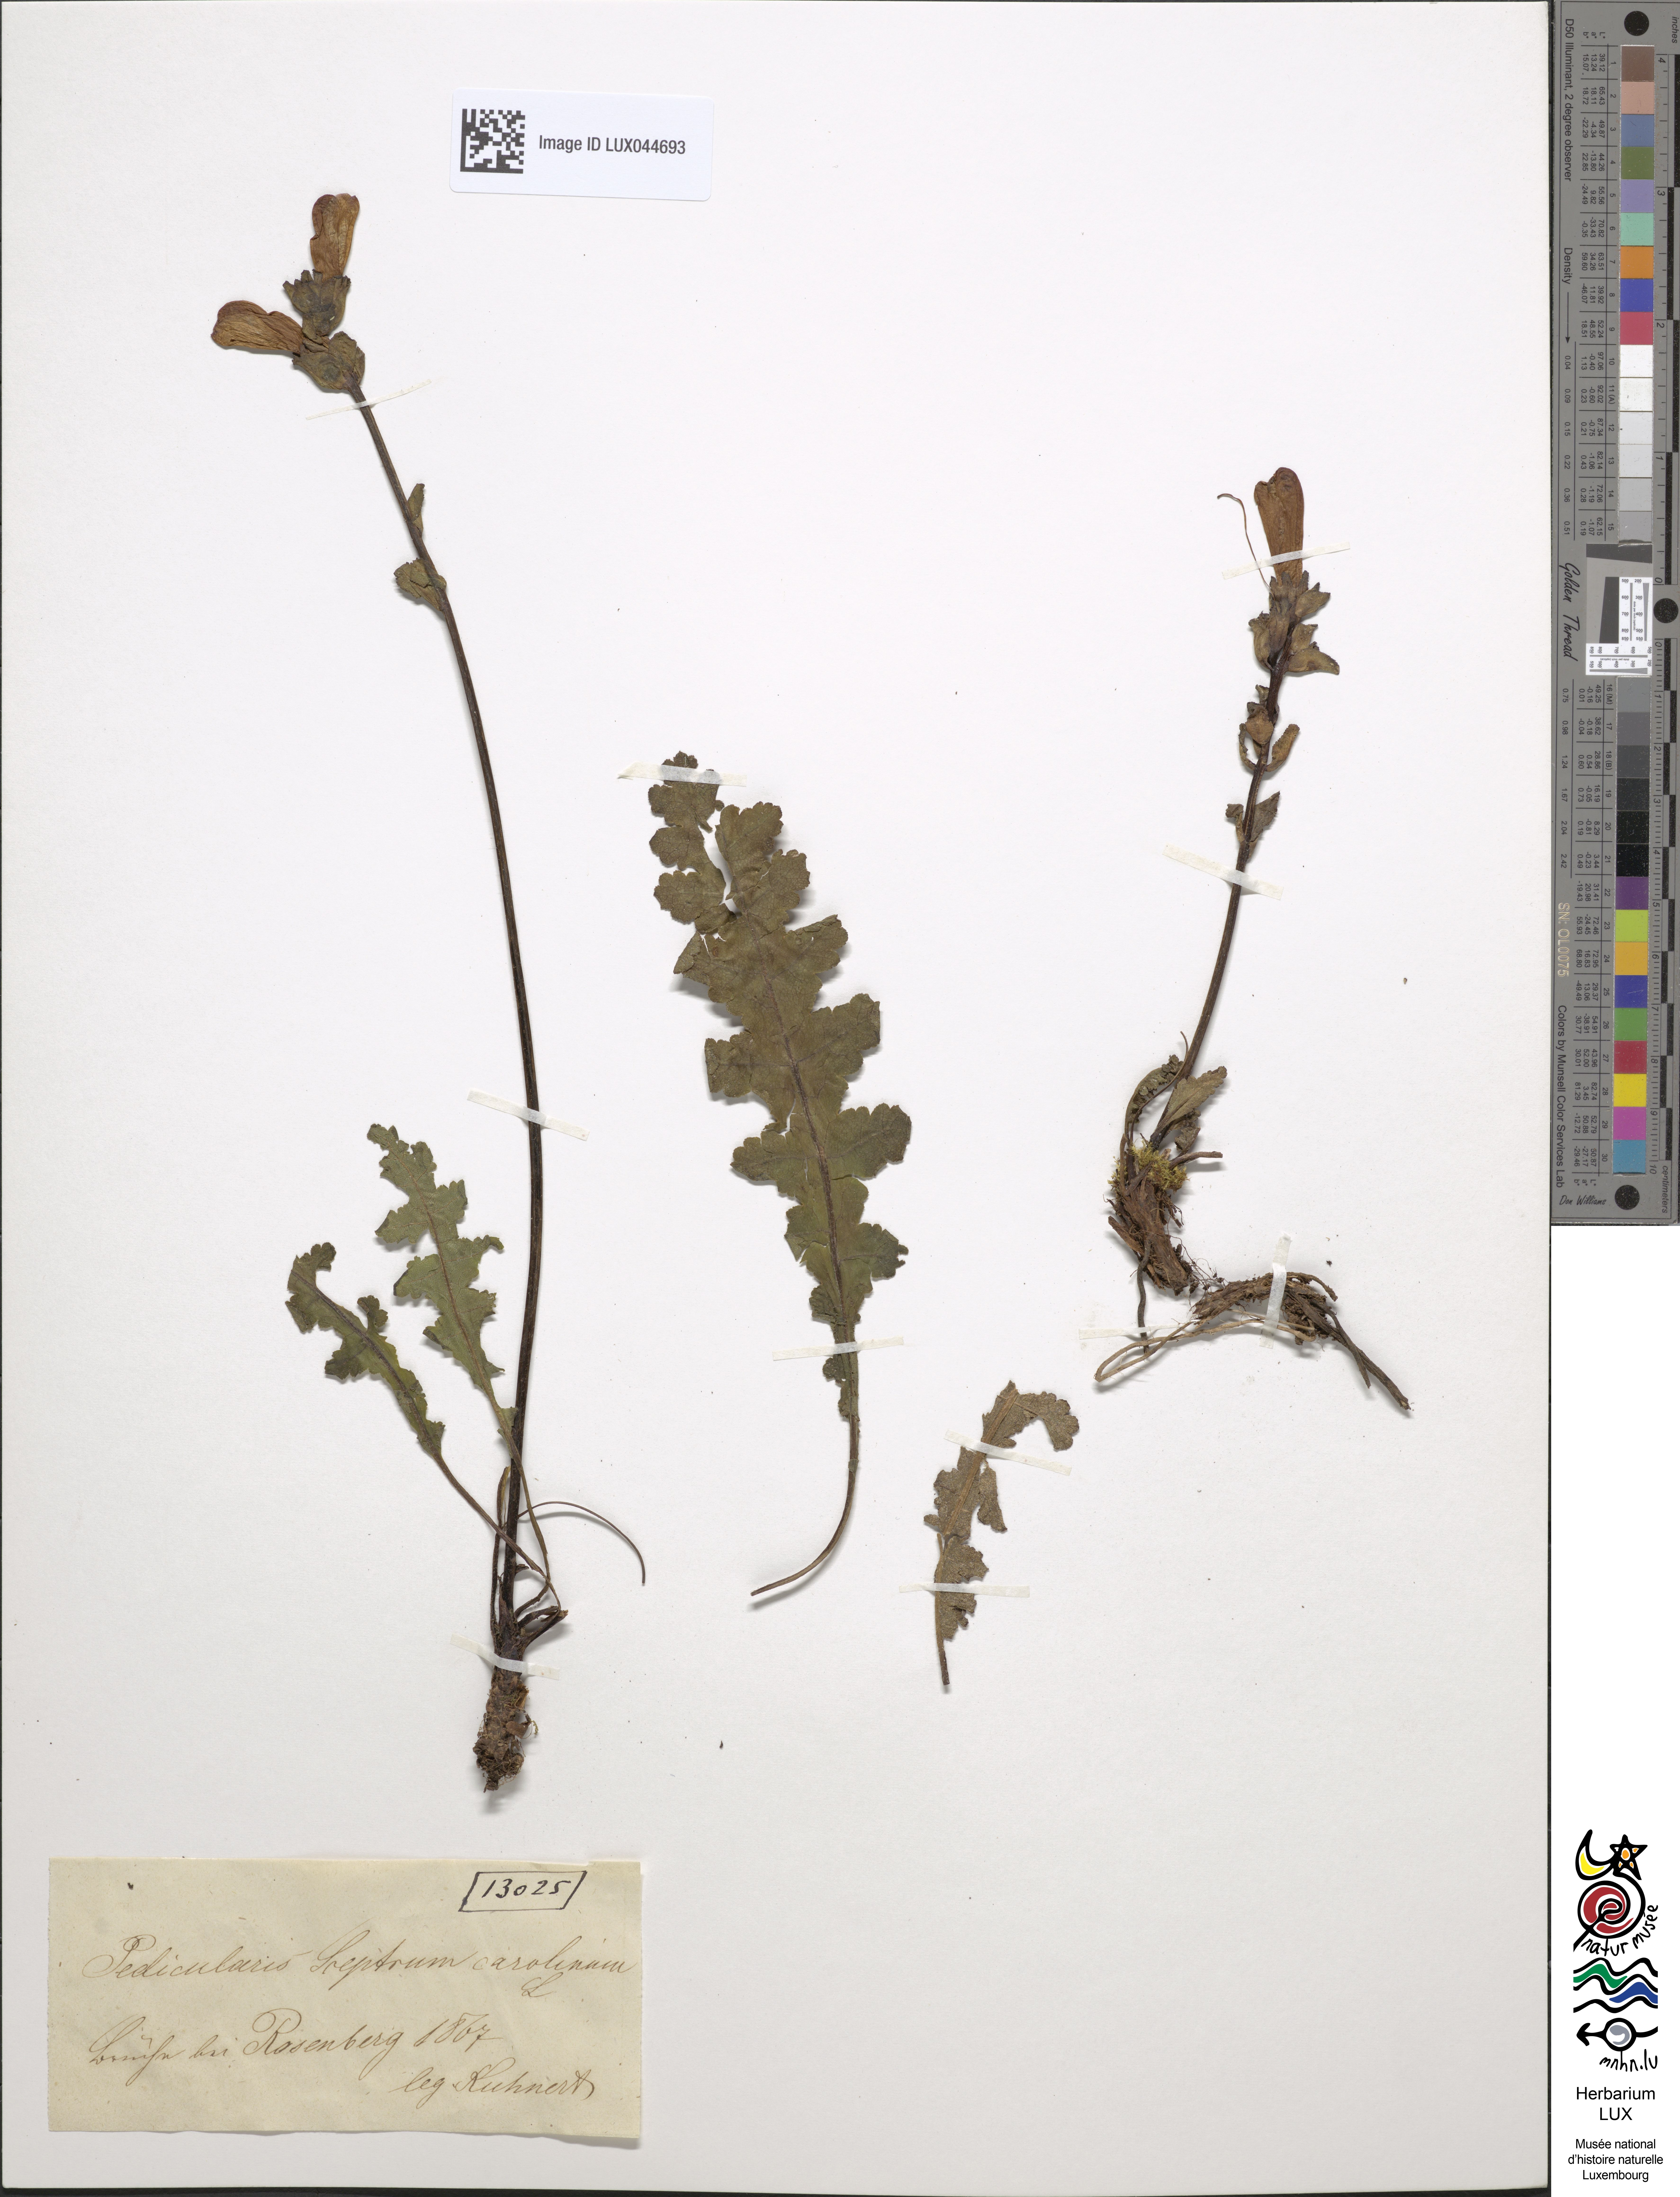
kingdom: Plantae
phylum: Tracheophyta
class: Magnoliopsida
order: Lamiales
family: Orobanchaceae
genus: Pedicularis
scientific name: Pedicularis sceptrum-carolinum
